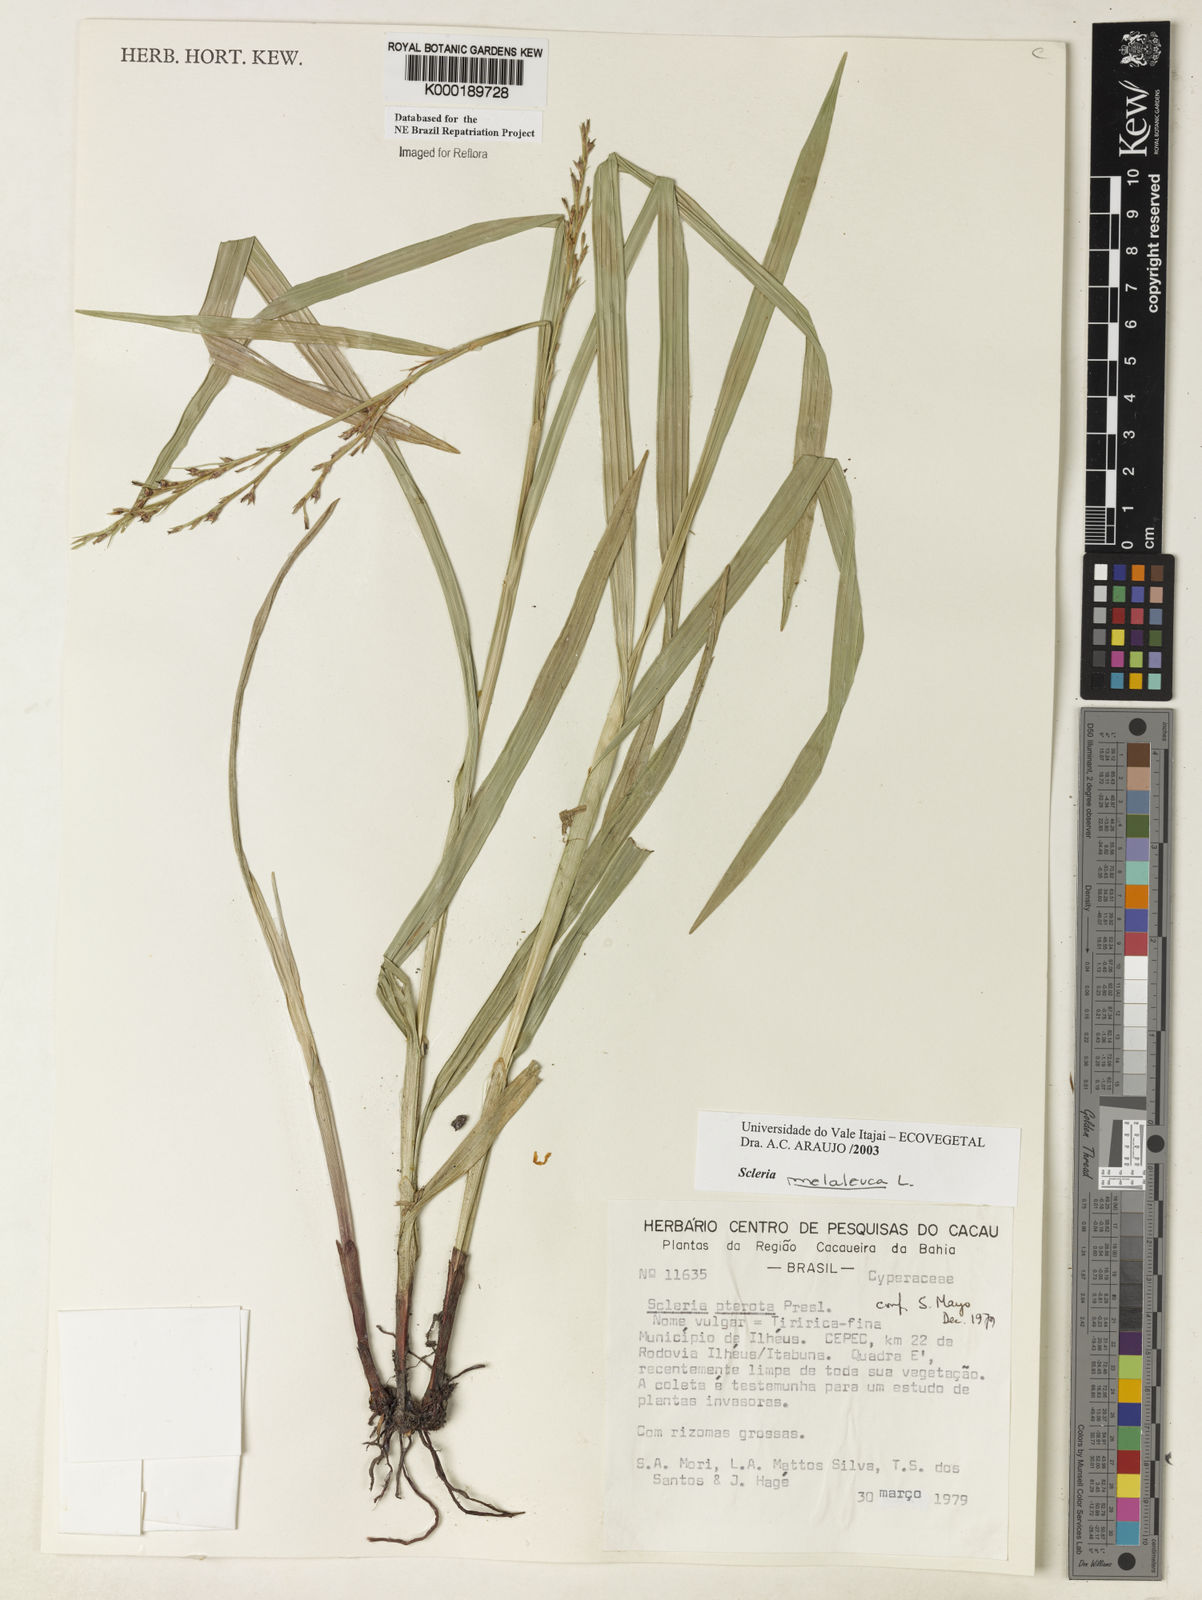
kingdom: Plantae
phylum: Tracheophyta
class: Liliopsida
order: Poales
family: Cyperaceae
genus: Scleria
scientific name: Scleria gaertneri
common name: Cortadera blanca
